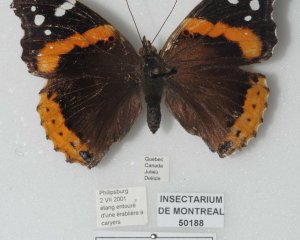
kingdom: Animalia
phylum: Arthropoda
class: Insecta
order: Lepidoptera
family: Nymphalidae
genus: Vanessa
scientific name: Vanessa atalanta
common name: Red Admiral
